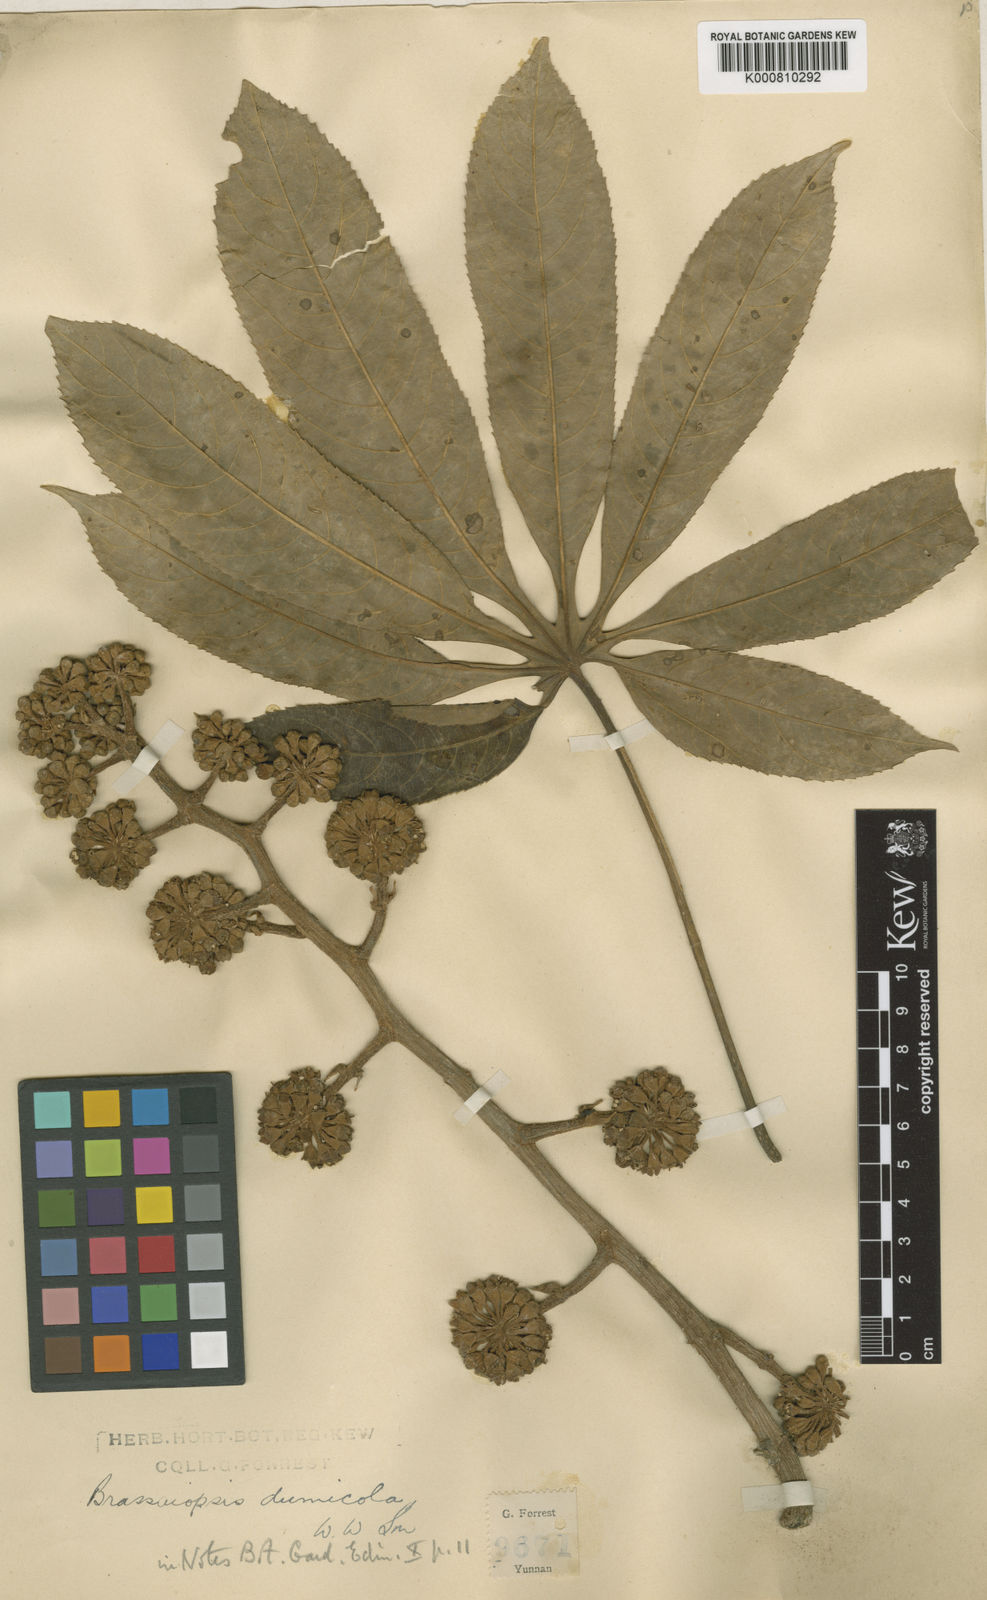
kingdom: Plantae
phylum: Tracheophyta
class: Magnoliopsida
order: Apiales
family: Araliaceae
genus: Brassaiopsis
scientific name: Brassaiopsis dumicola
